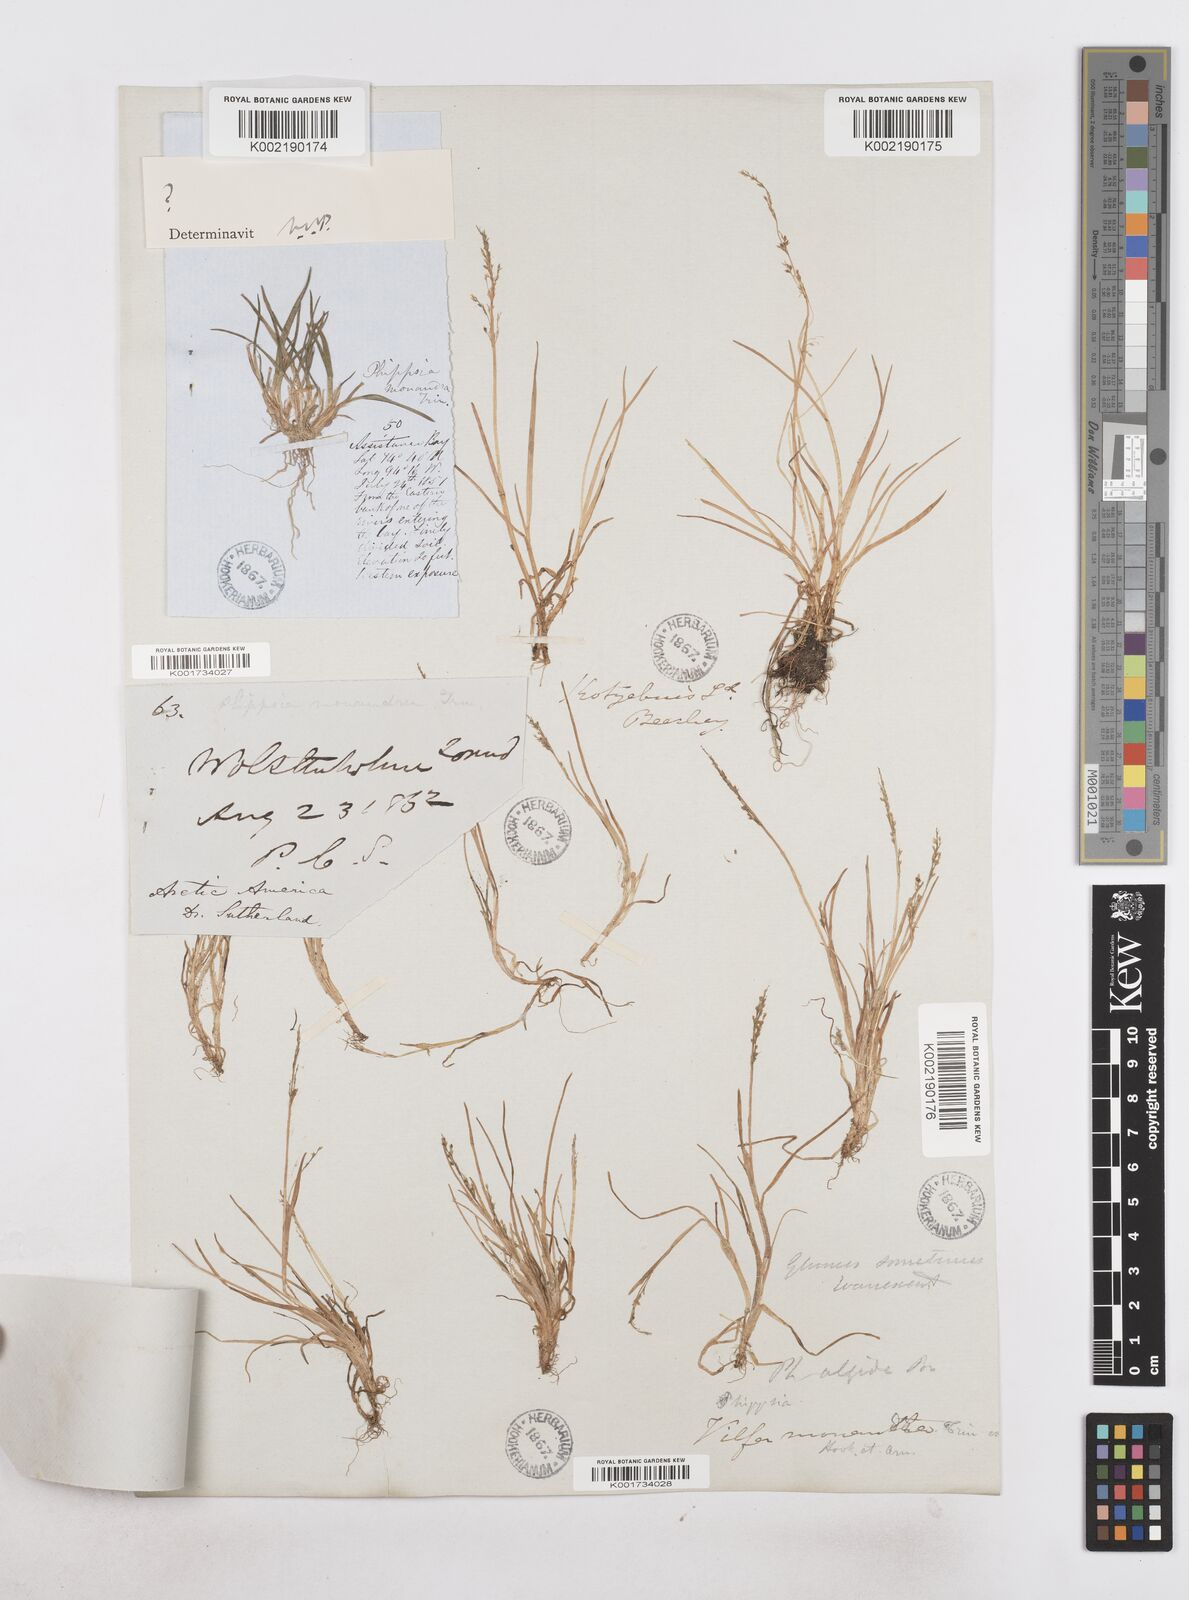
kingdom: Plantae
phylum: Tracheophyta
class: Liliopsida
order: Poales
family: Poaceae
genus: Phippsia
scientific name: Phippsia
